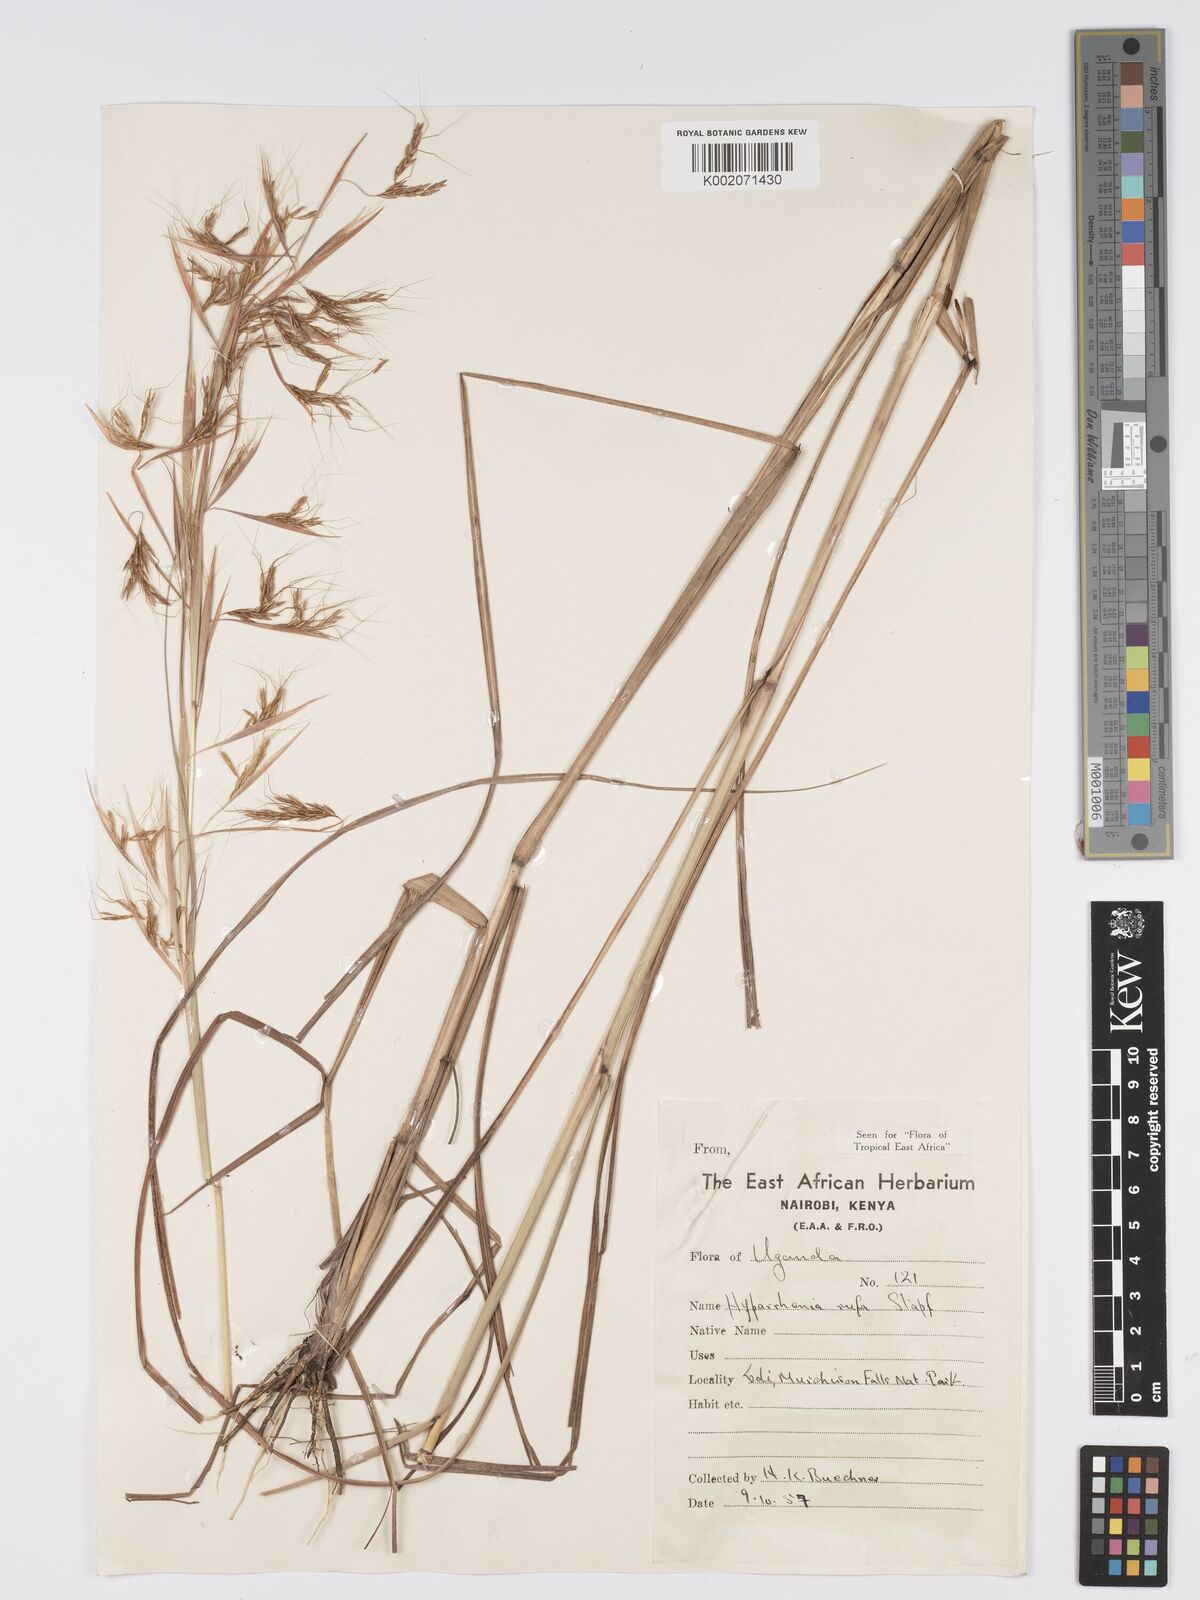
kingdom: Plantae
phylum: Tracheophyta
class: Liliopsida
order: Poales
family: Poaceae
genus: Hyparrhenia
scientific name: Hyparrhenia rufa
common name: Jaraguagrass
